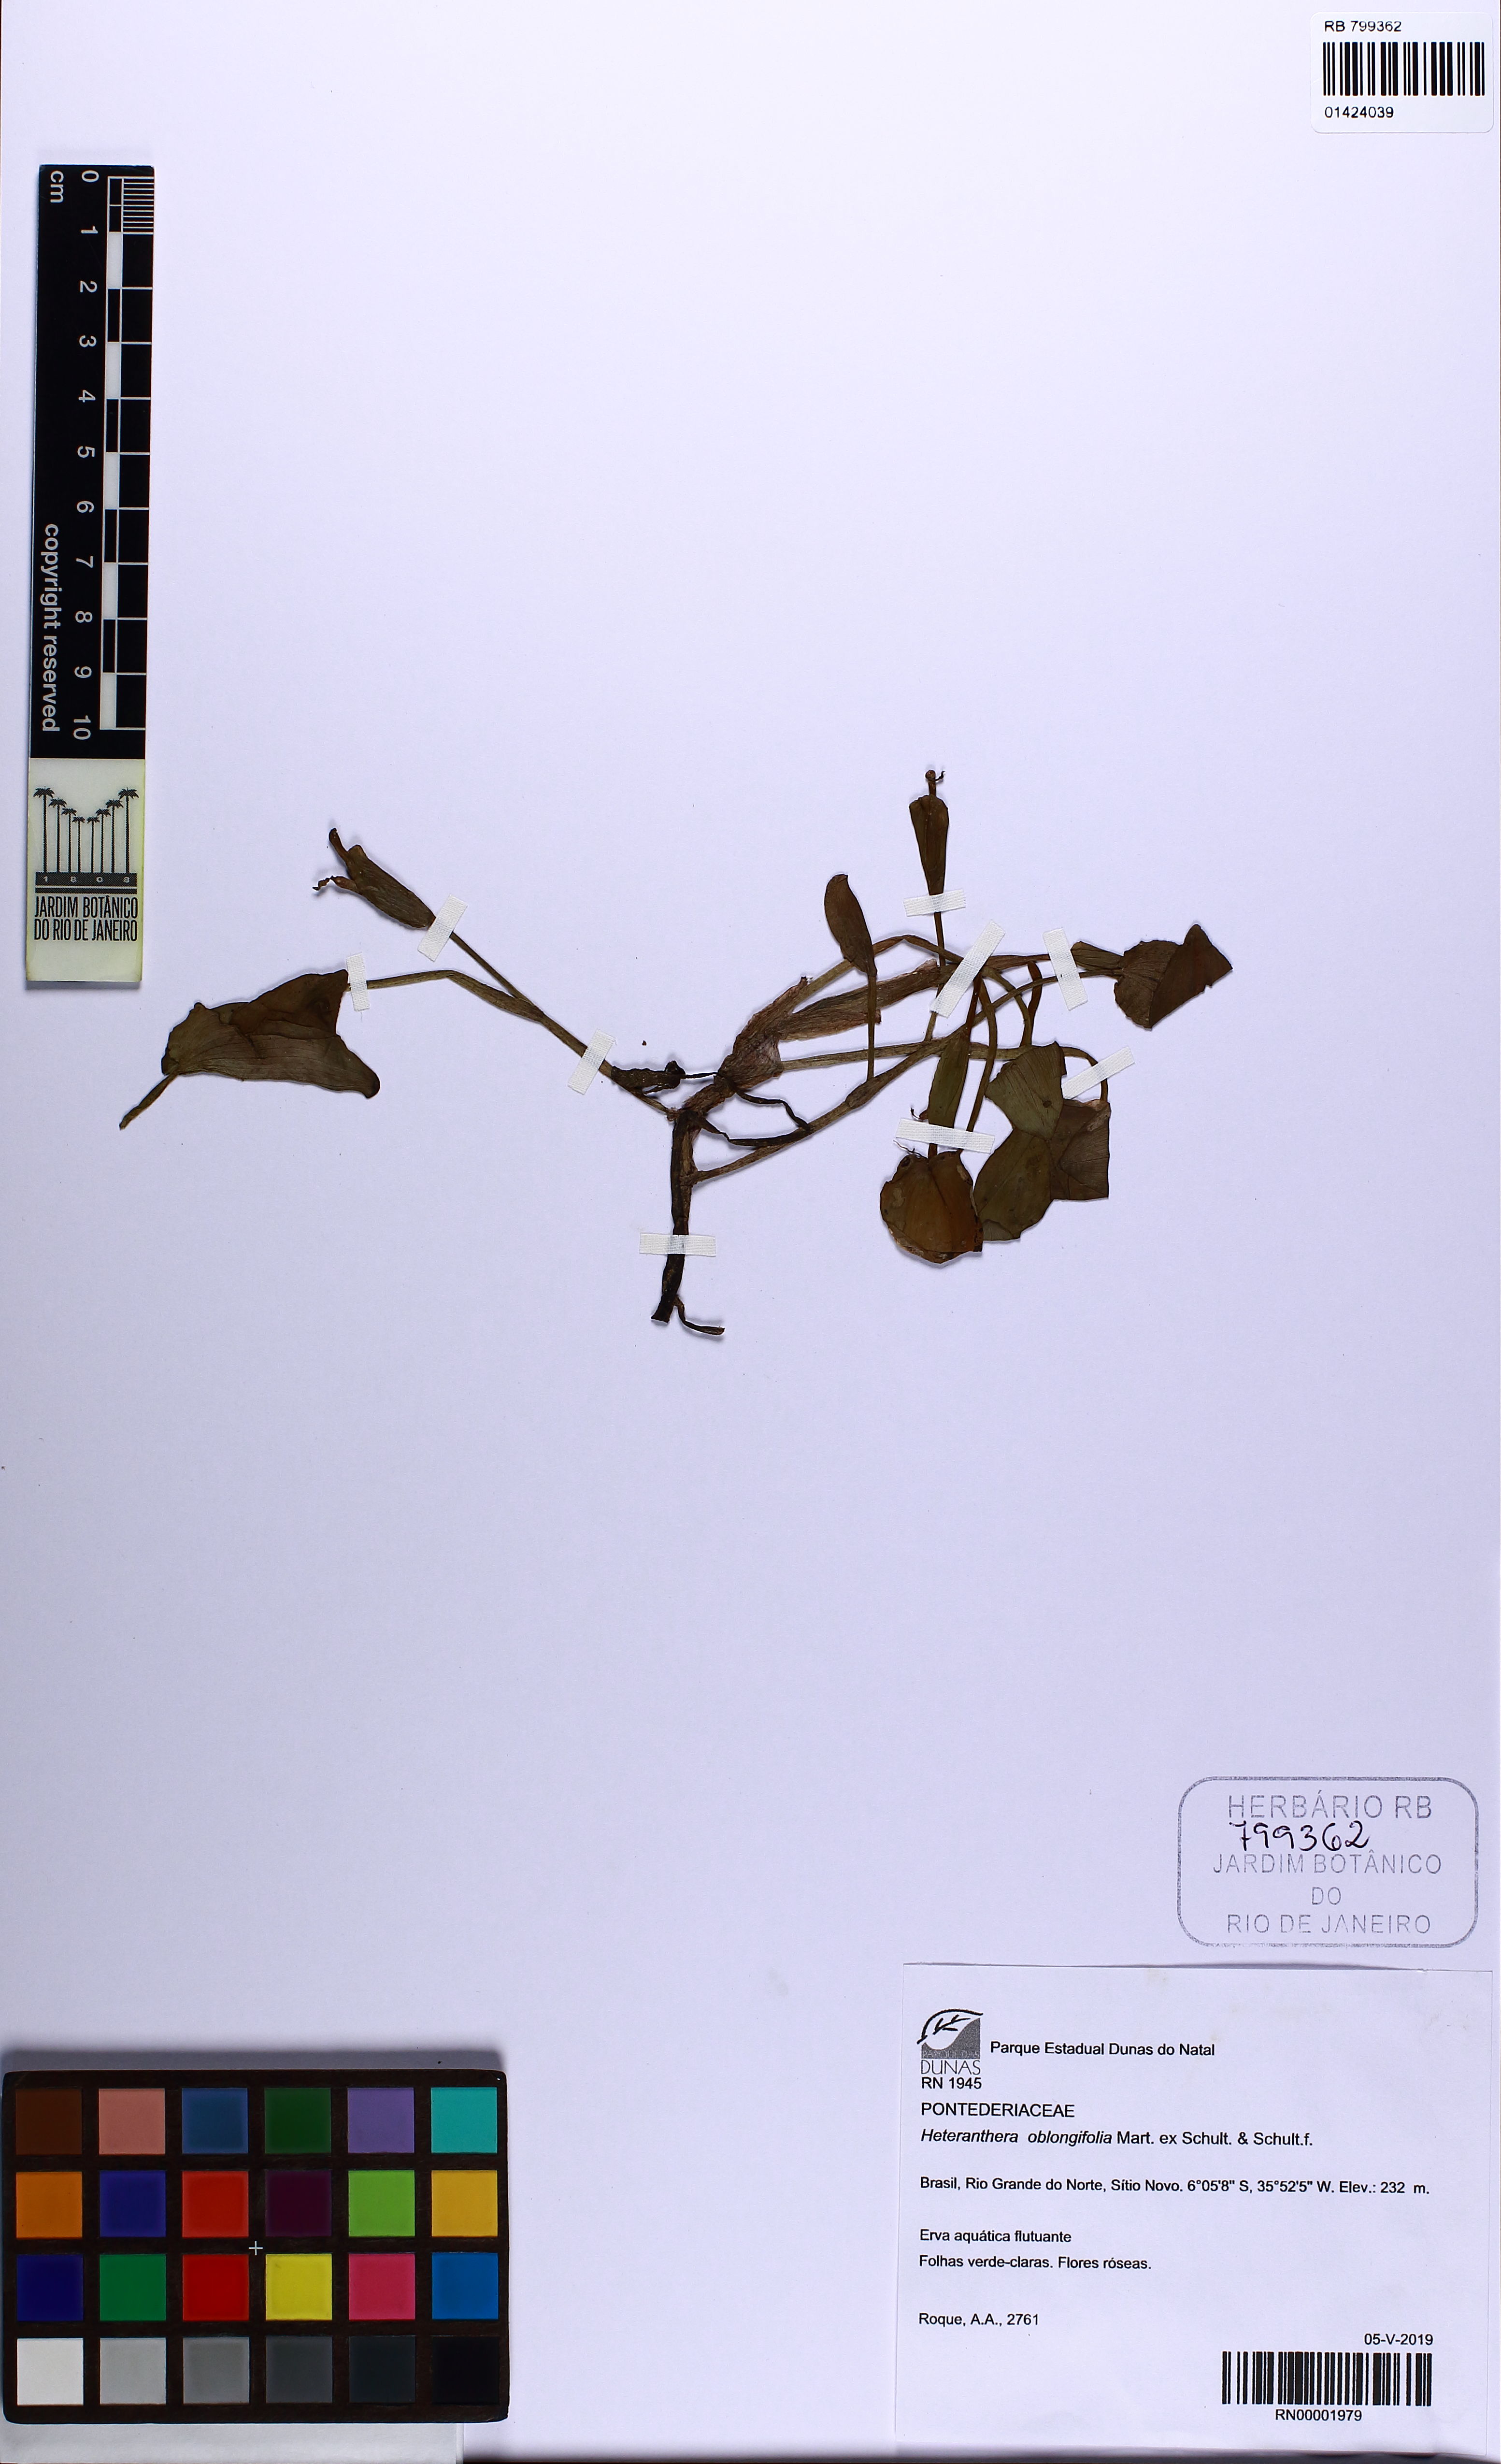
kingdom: Plantae
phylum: Tracheophyta
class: Liliopsida
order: Commelinales
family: Pontederiaceae
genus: Heteranthera
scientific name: Heteranthera oblongifolia
